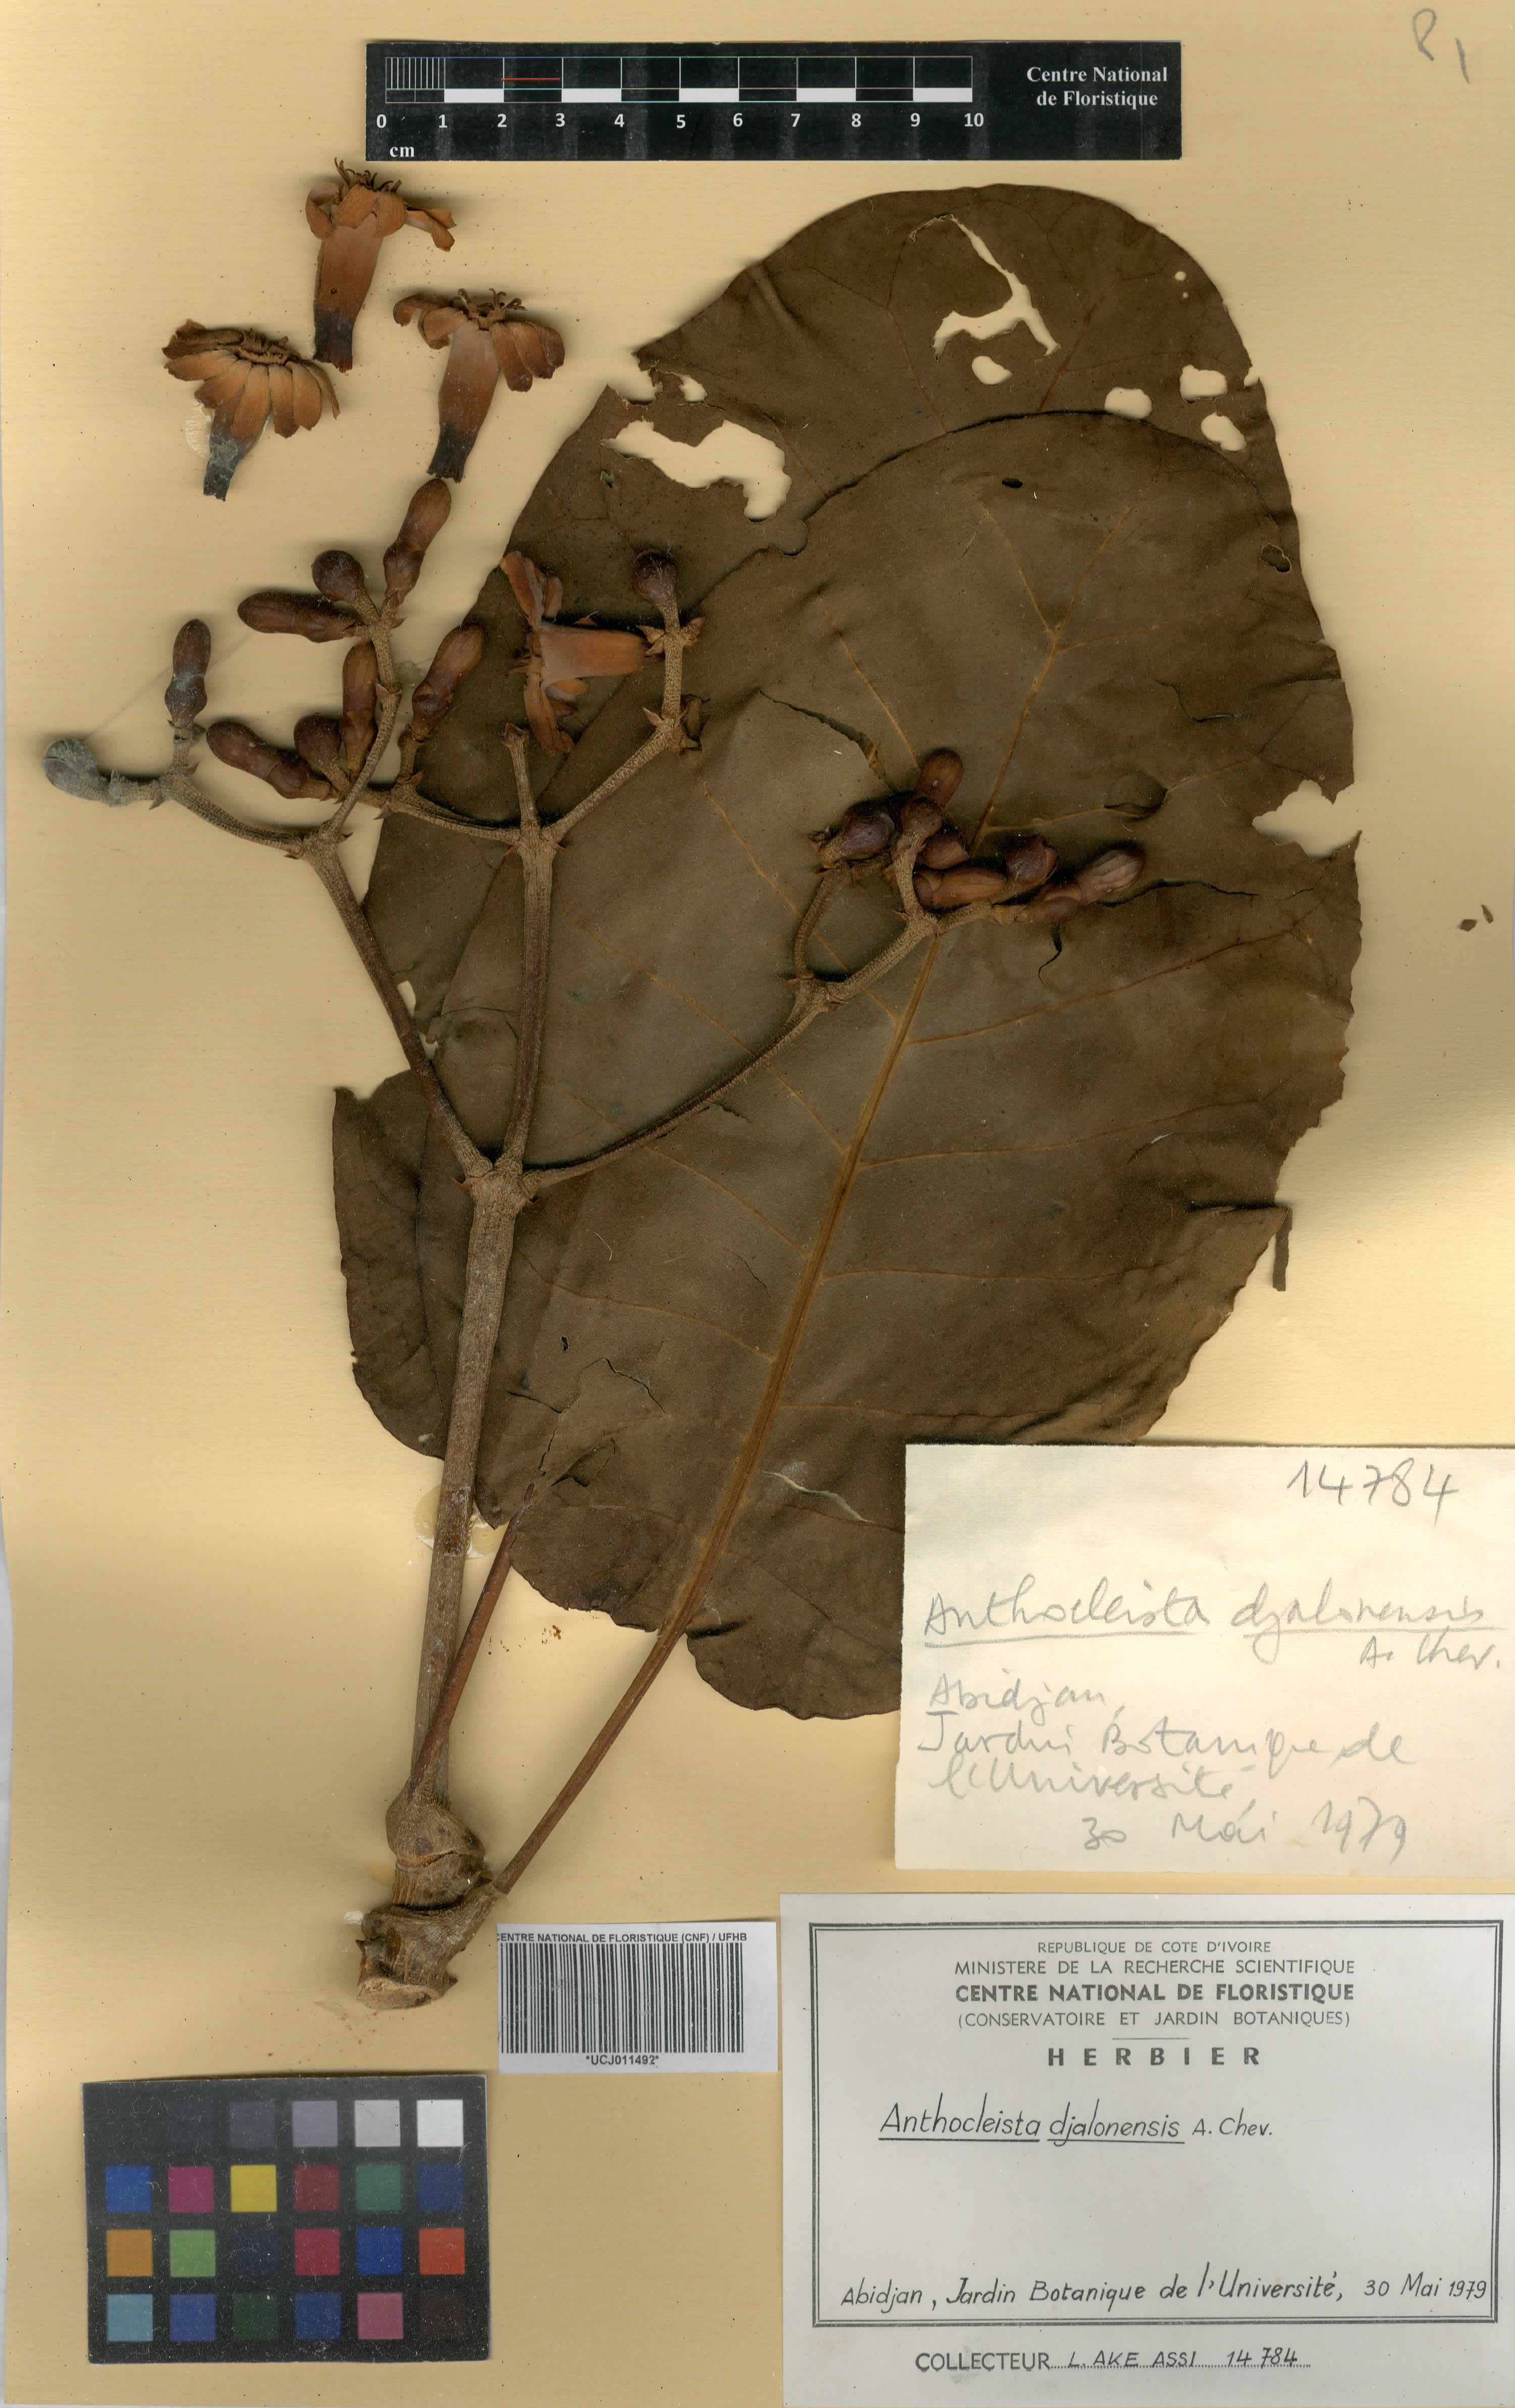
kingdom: Plantae
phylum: Tracheophyta
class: Magnoliopsida
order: Gentianales
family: Gentianaceae
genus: Anthocleista
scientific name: Anthocleista djalonensis
